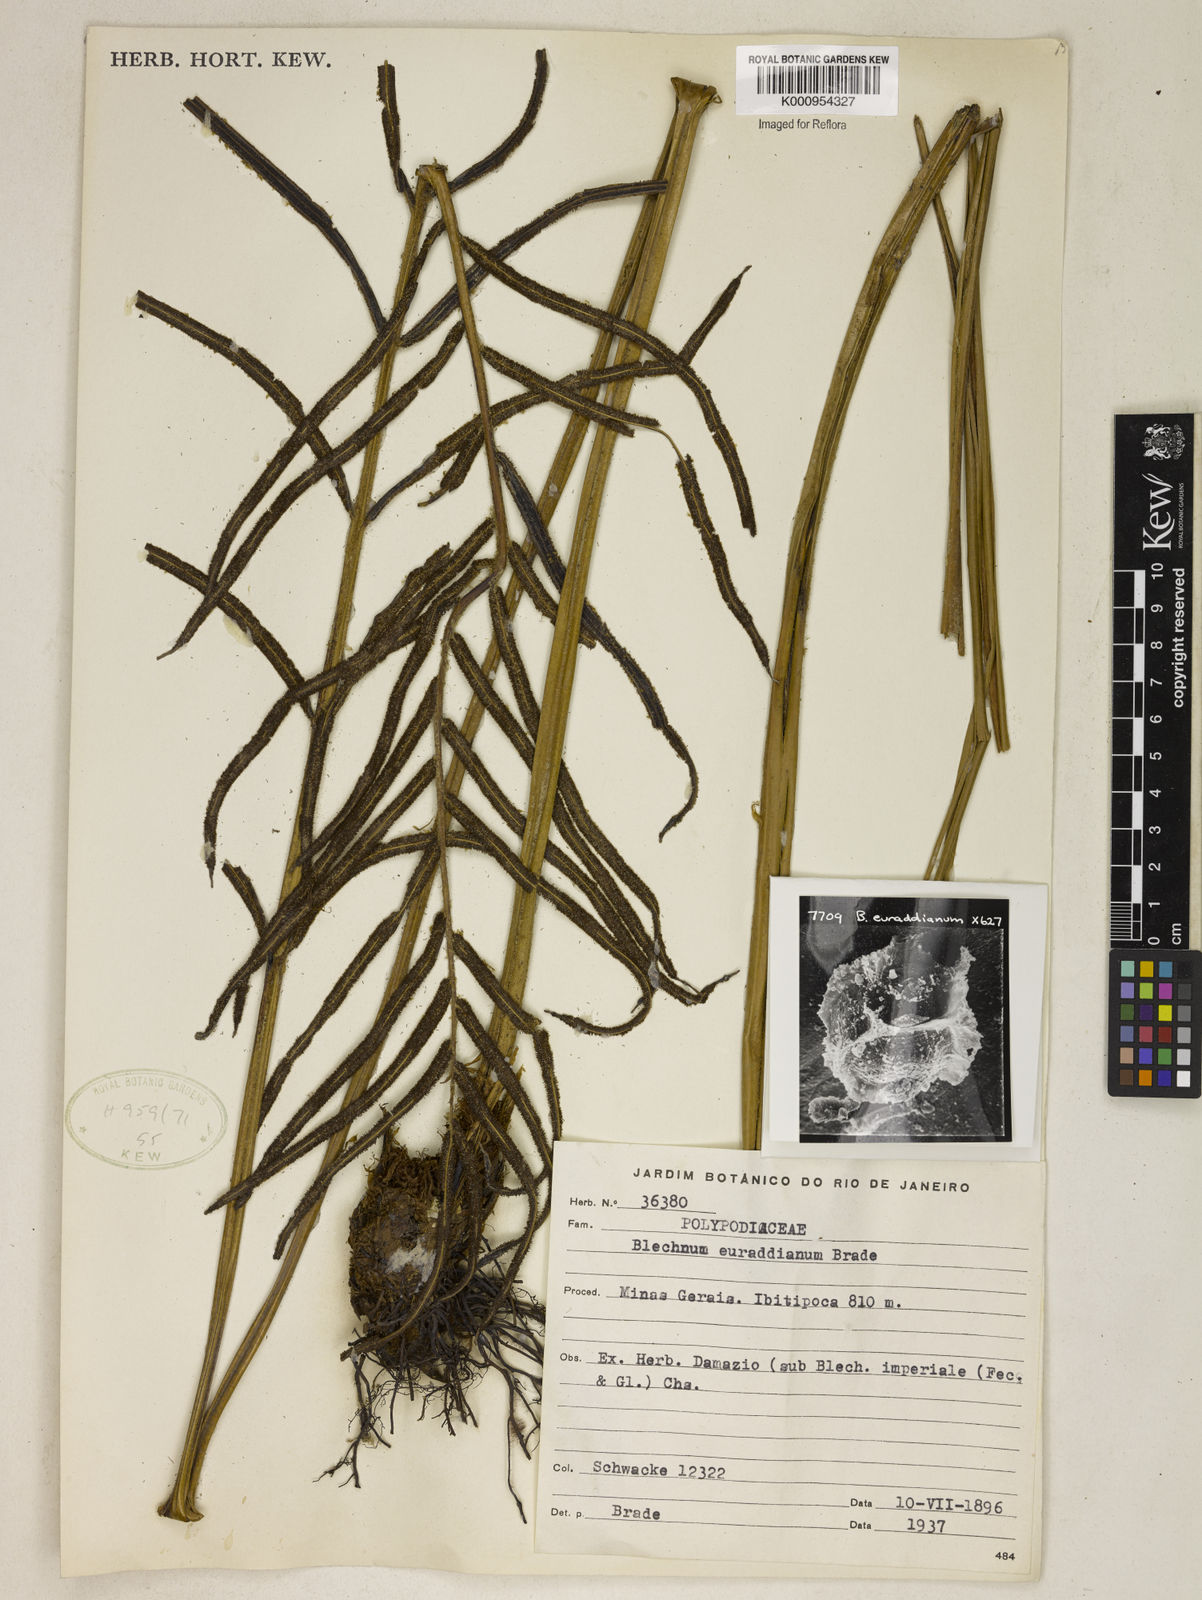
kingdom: Plantae
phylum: Tracheophyta
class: Polypodiopsida
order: Polypodiales
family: Blechnaceae
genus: Parablechnum
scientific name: Parablechnum cordatum
